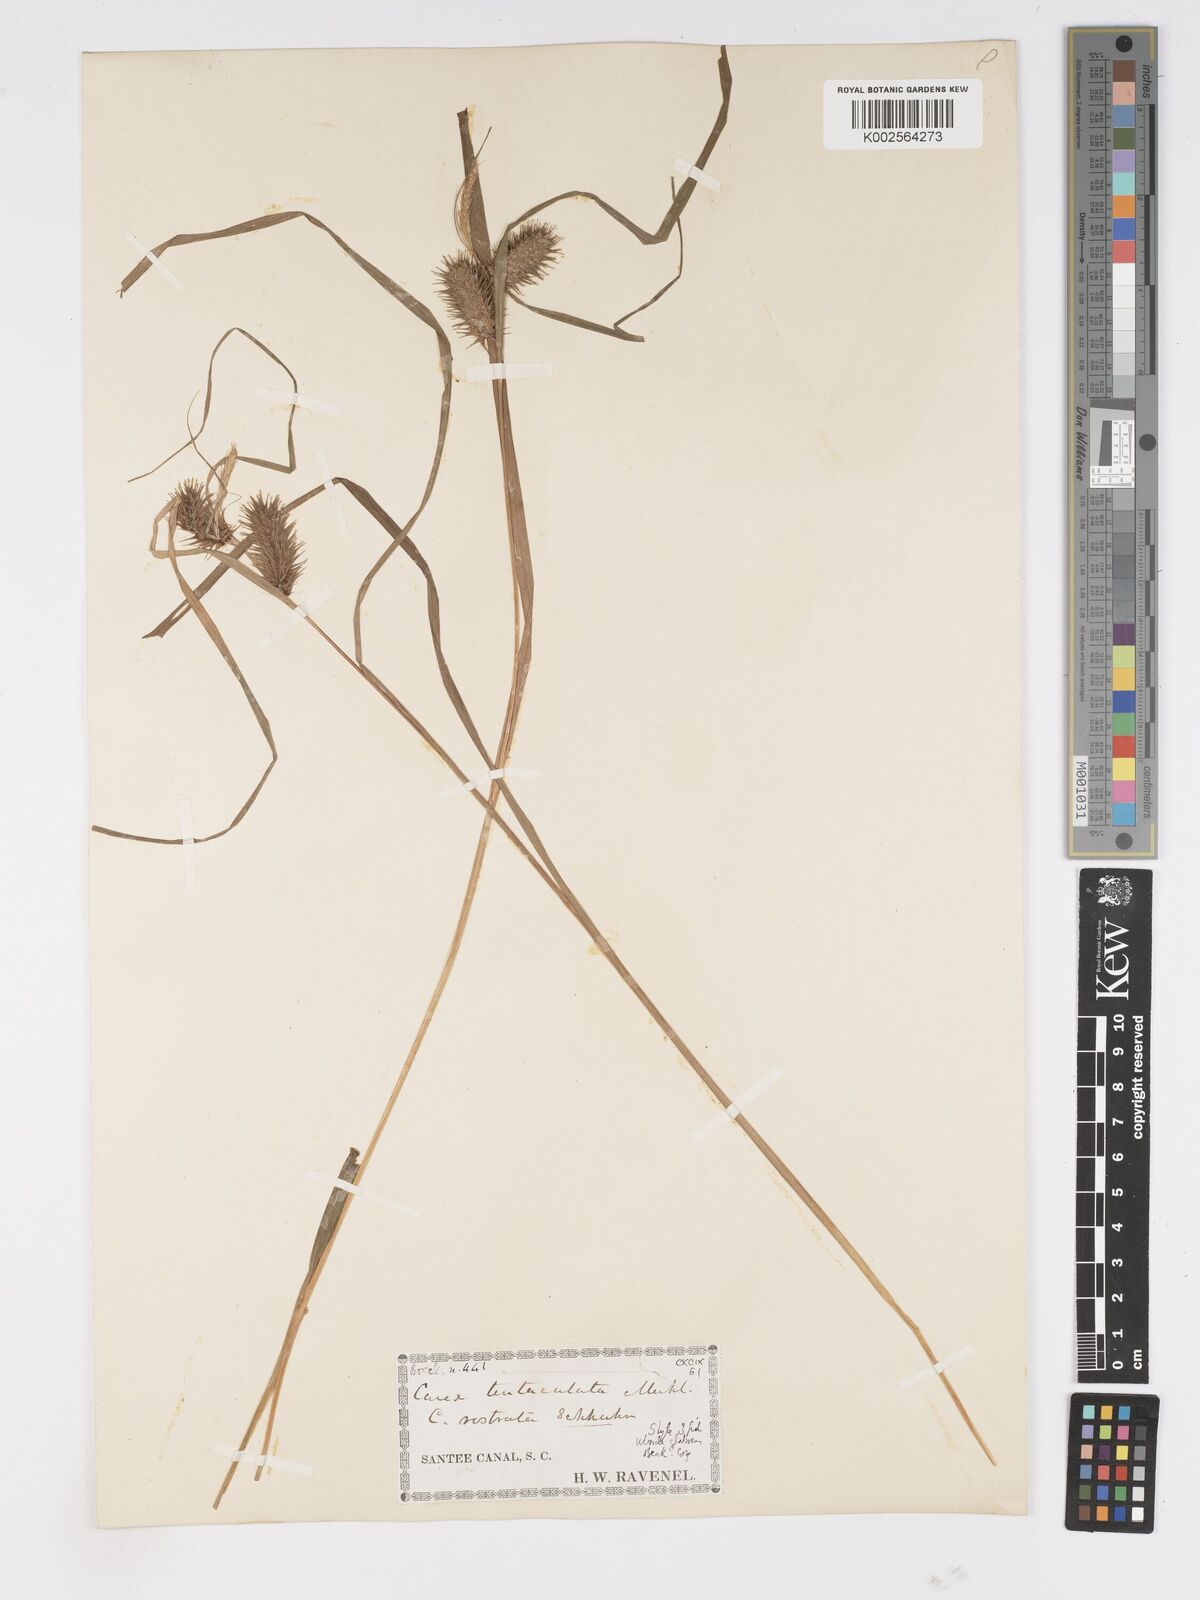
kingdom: Plantae
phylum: Tracheophyta
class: Liliopsida
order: Poales
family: Cyperaceae
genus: Carex
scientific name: Carex lurida
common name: Sallow sedge
